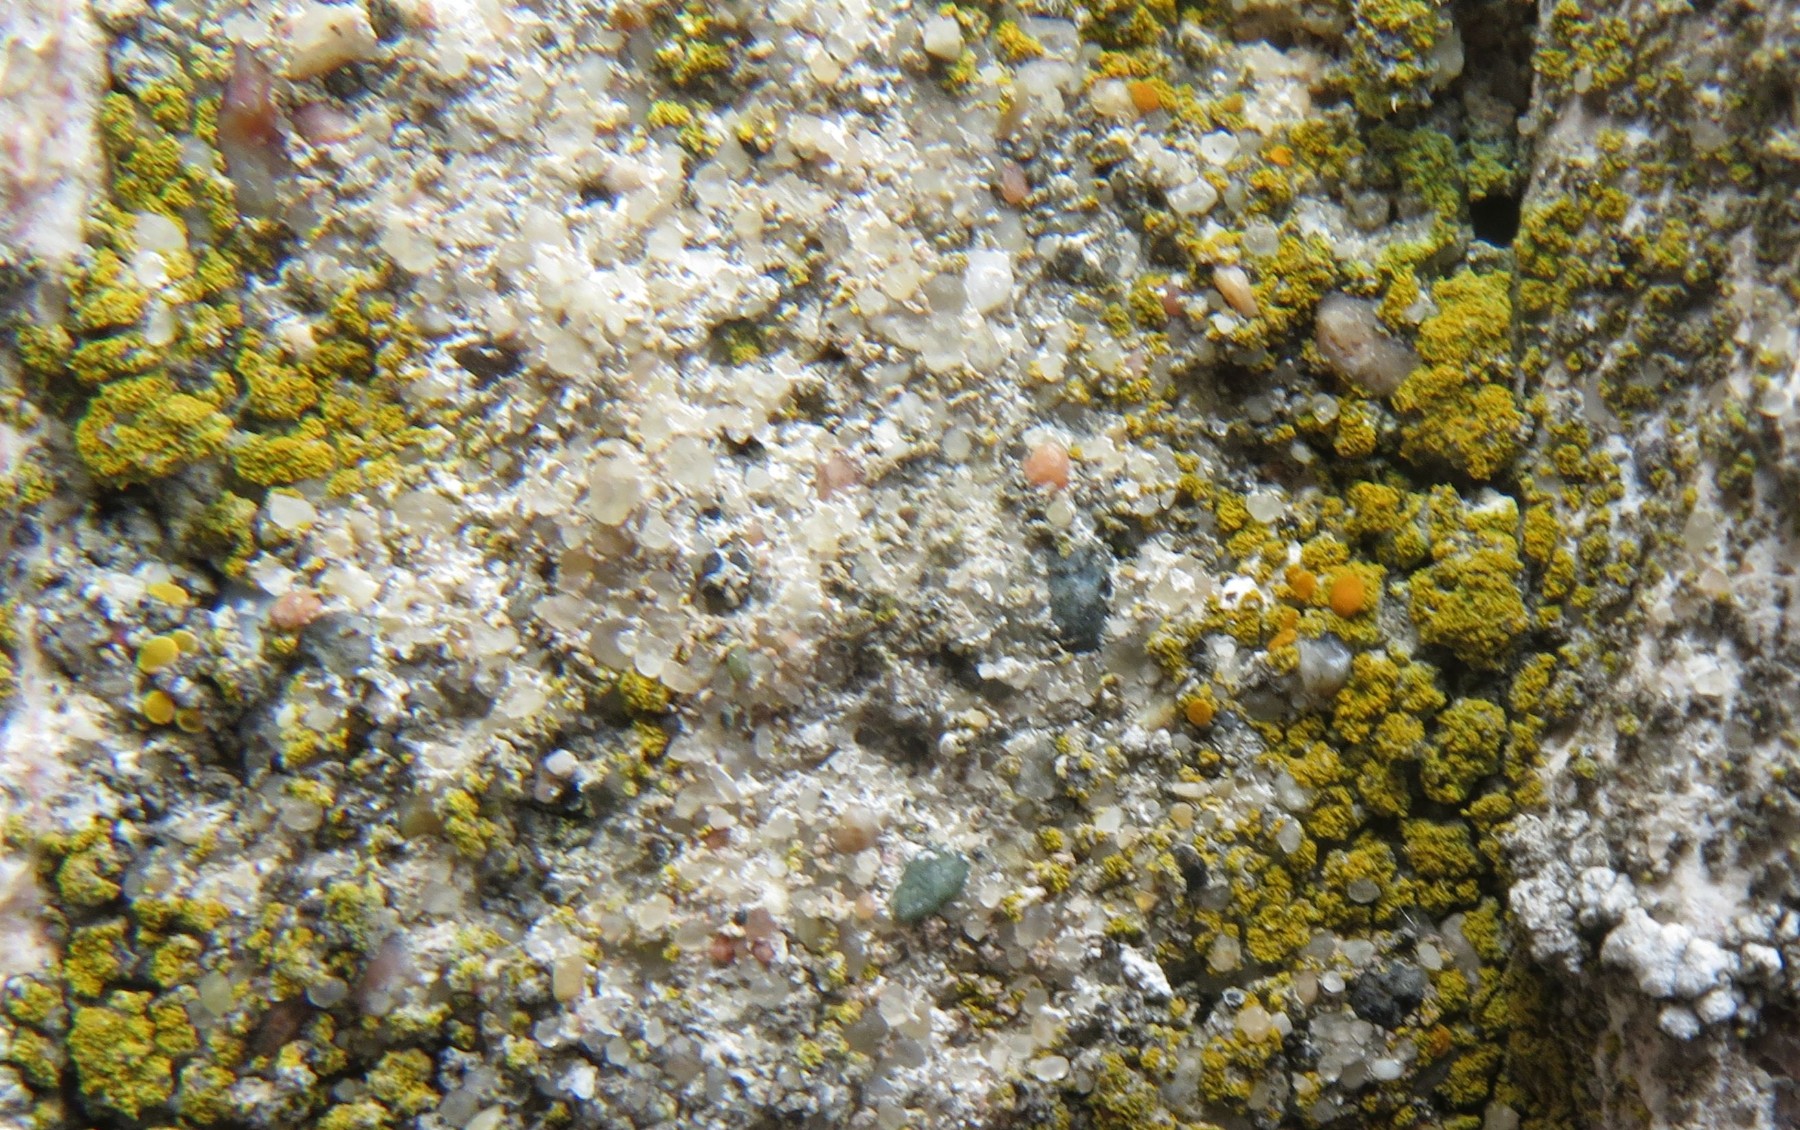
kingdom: Fungi
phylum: Ascomycota
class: Lecanoromycetes
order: Teloschistales
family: Teloschistaceae
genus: Flavoplaca
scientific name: Flavoplaca flavocitrina
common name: grynskællet orangelav
